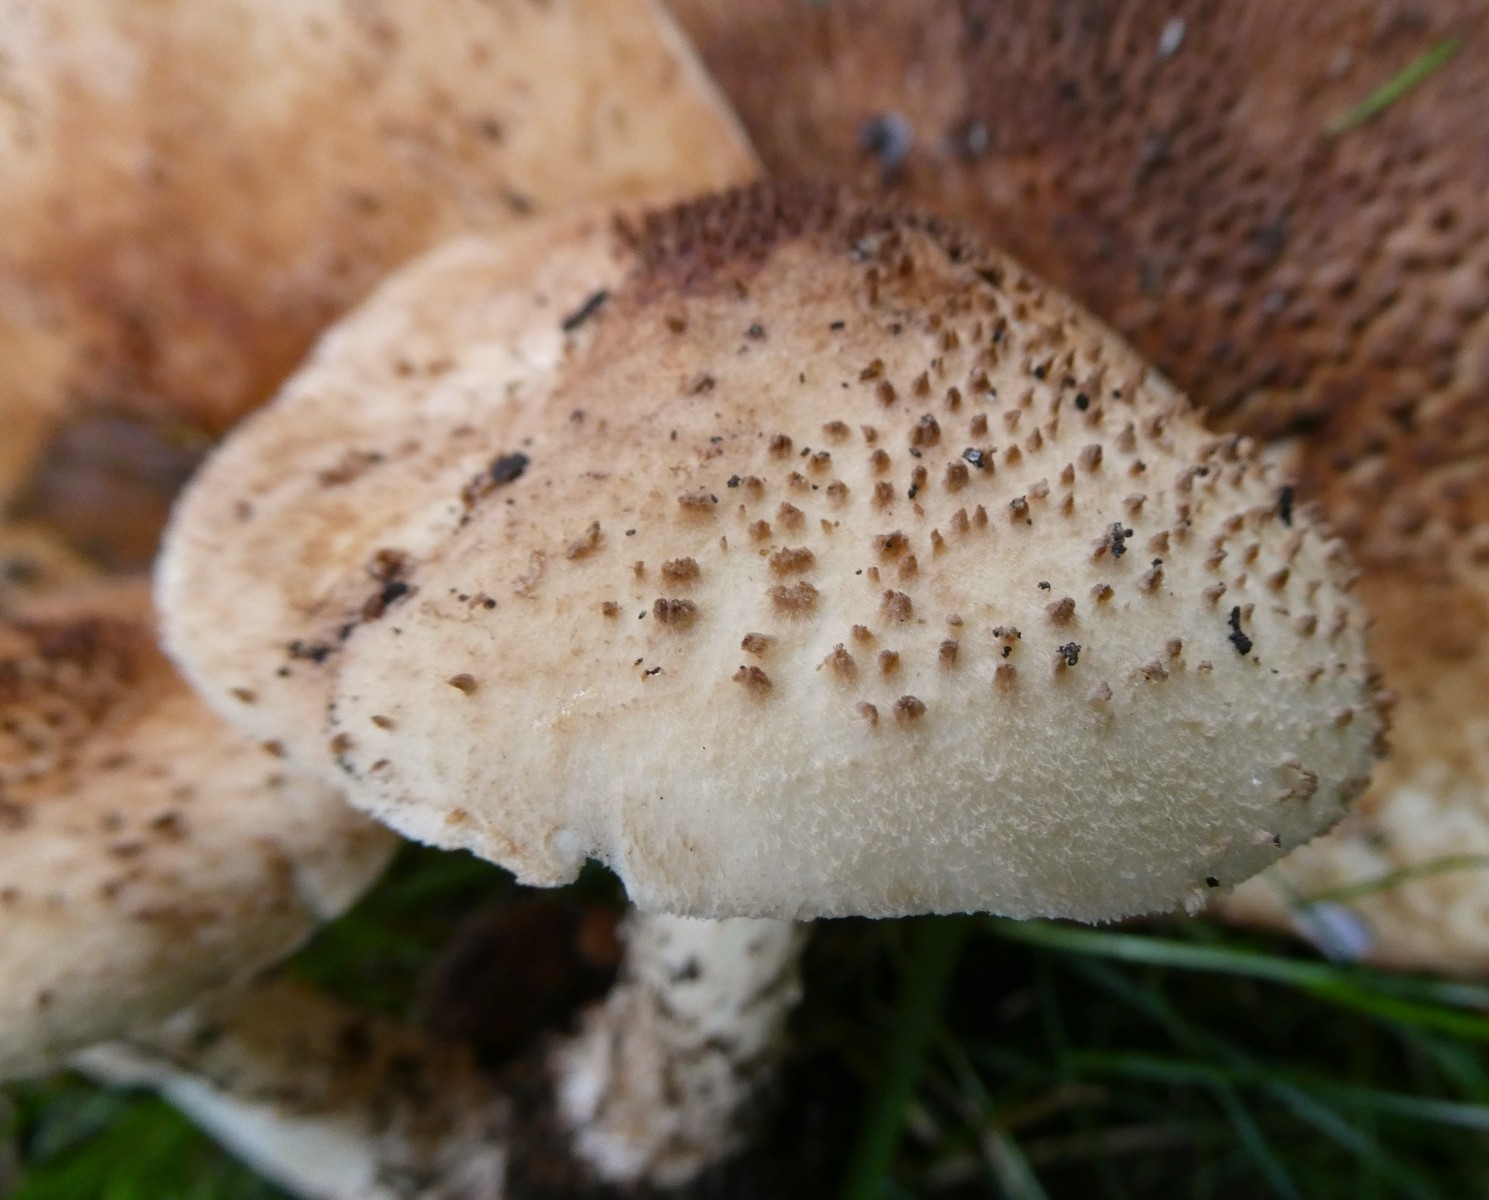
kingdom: Fungi
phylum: Basidiomycota
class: Agaricomycetes
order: Agaricales
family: Agaricaceae
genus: Echinoderma
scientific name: Echinoderma asperum
